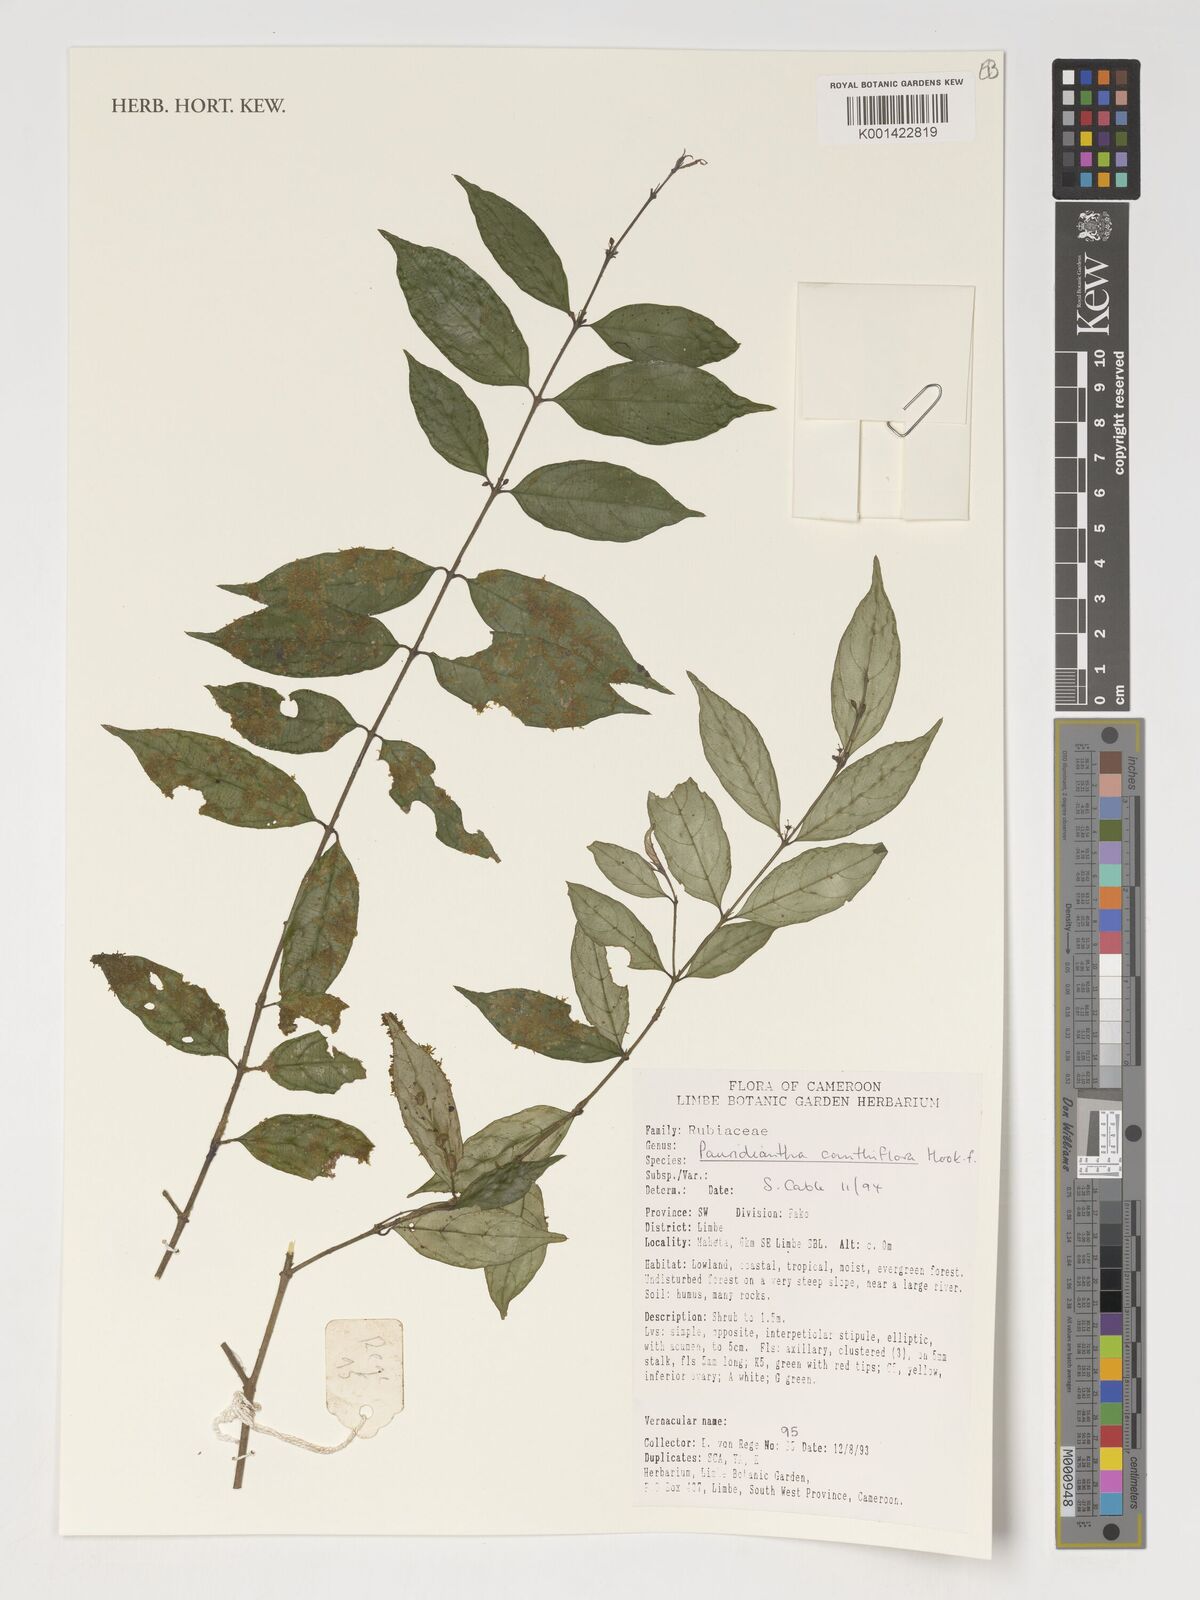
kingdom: Plantae
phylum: Tracheophyta
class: Magnoliopsida
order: Gentianales
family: Rubiaceae
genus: Pauridiantha
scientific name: Pauridiantha canthiiflora
